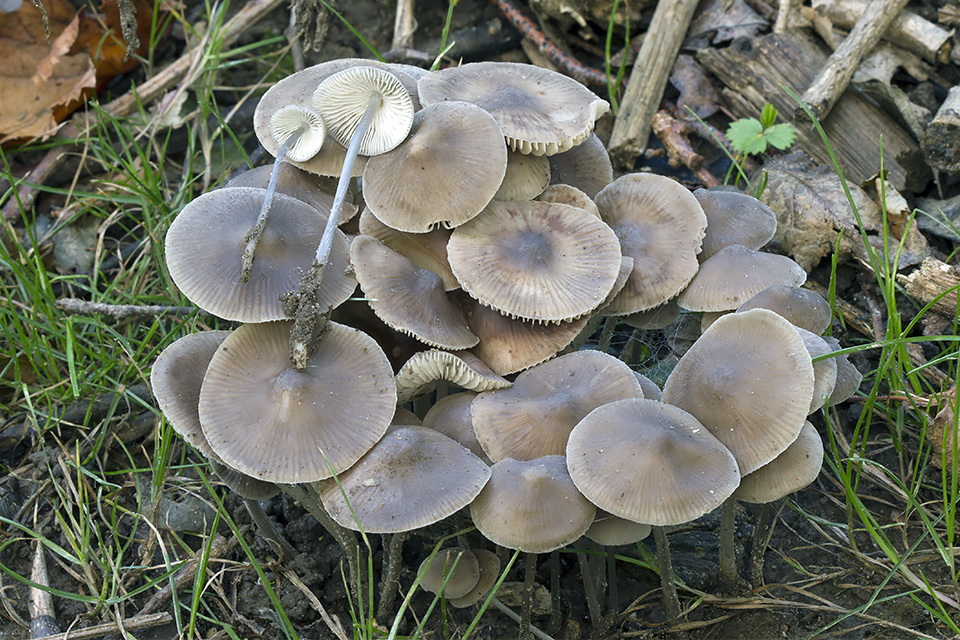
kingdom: Fungi
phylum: Basidiomycota
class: Agaricomycetes
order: Agaricales
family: Mycenaceae
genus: Mycena
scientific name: Mycena polygramma
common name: mangestribet huesvamp
